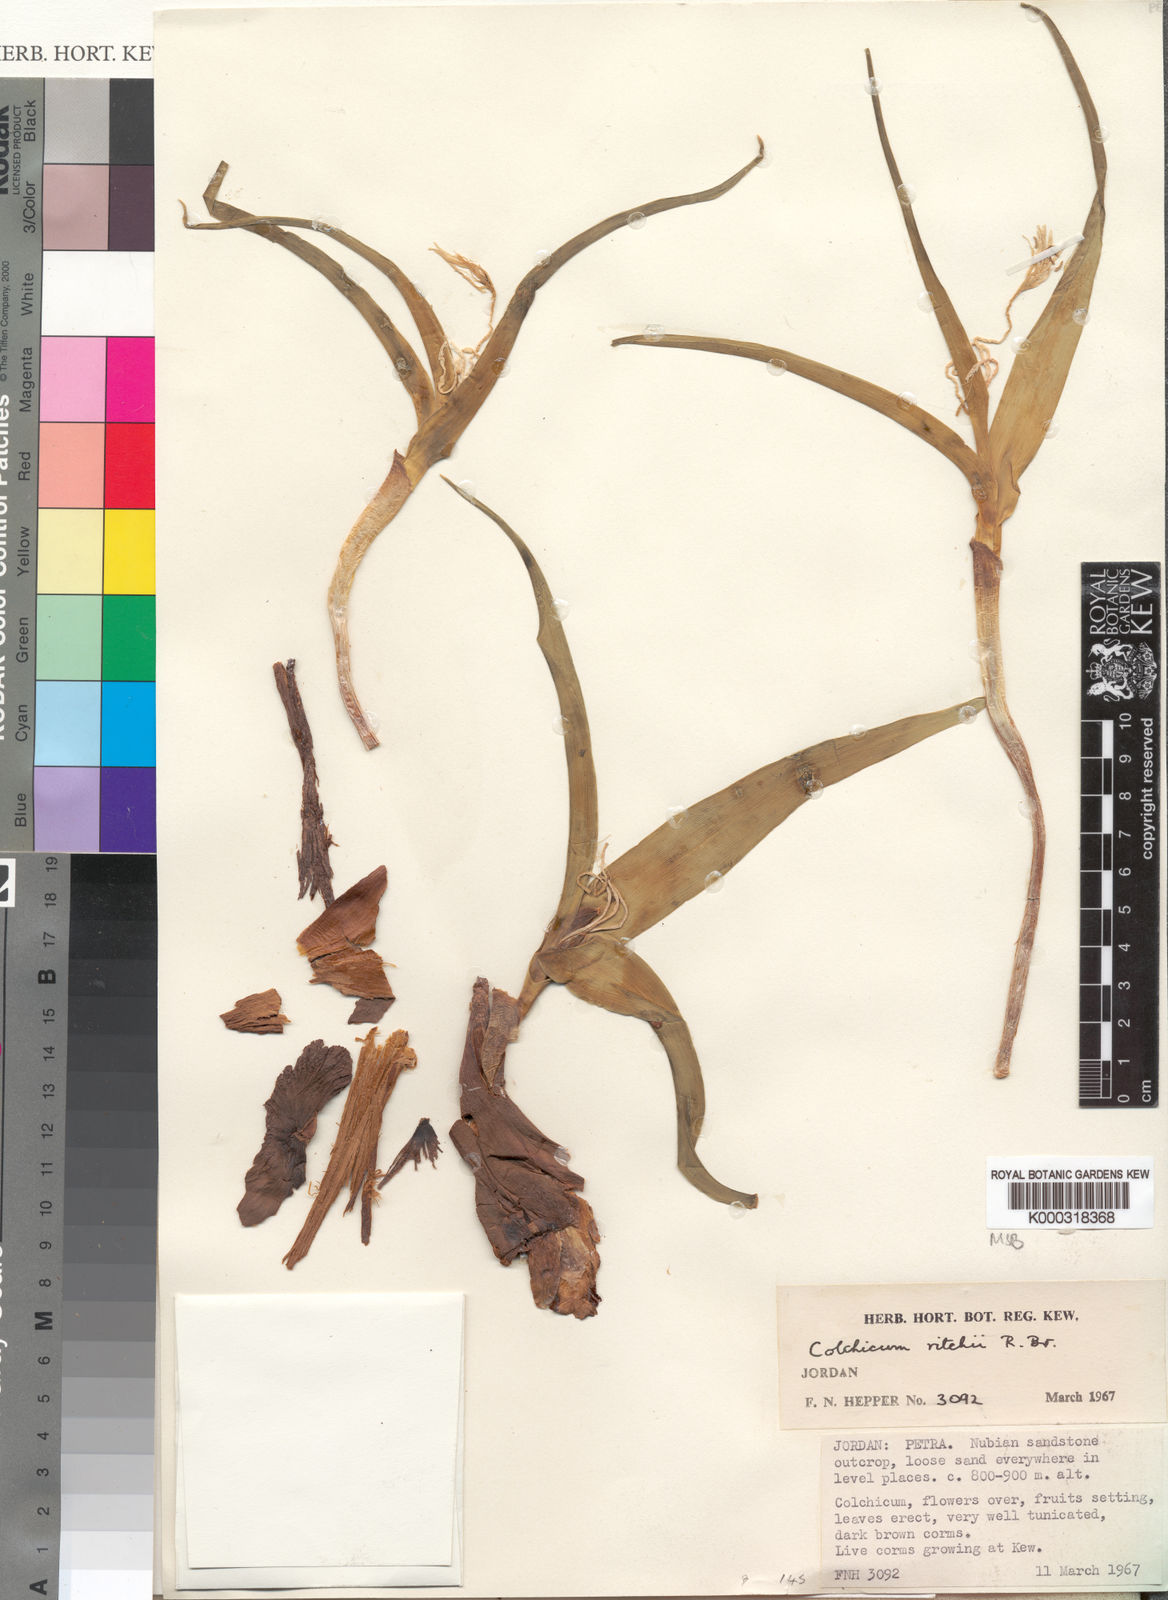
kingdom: Plantae
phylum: Tracheophyta
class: Liliopsida
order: Liliales
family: Colchicaceae
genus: Colchicum
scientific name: Colchicum ritchii
